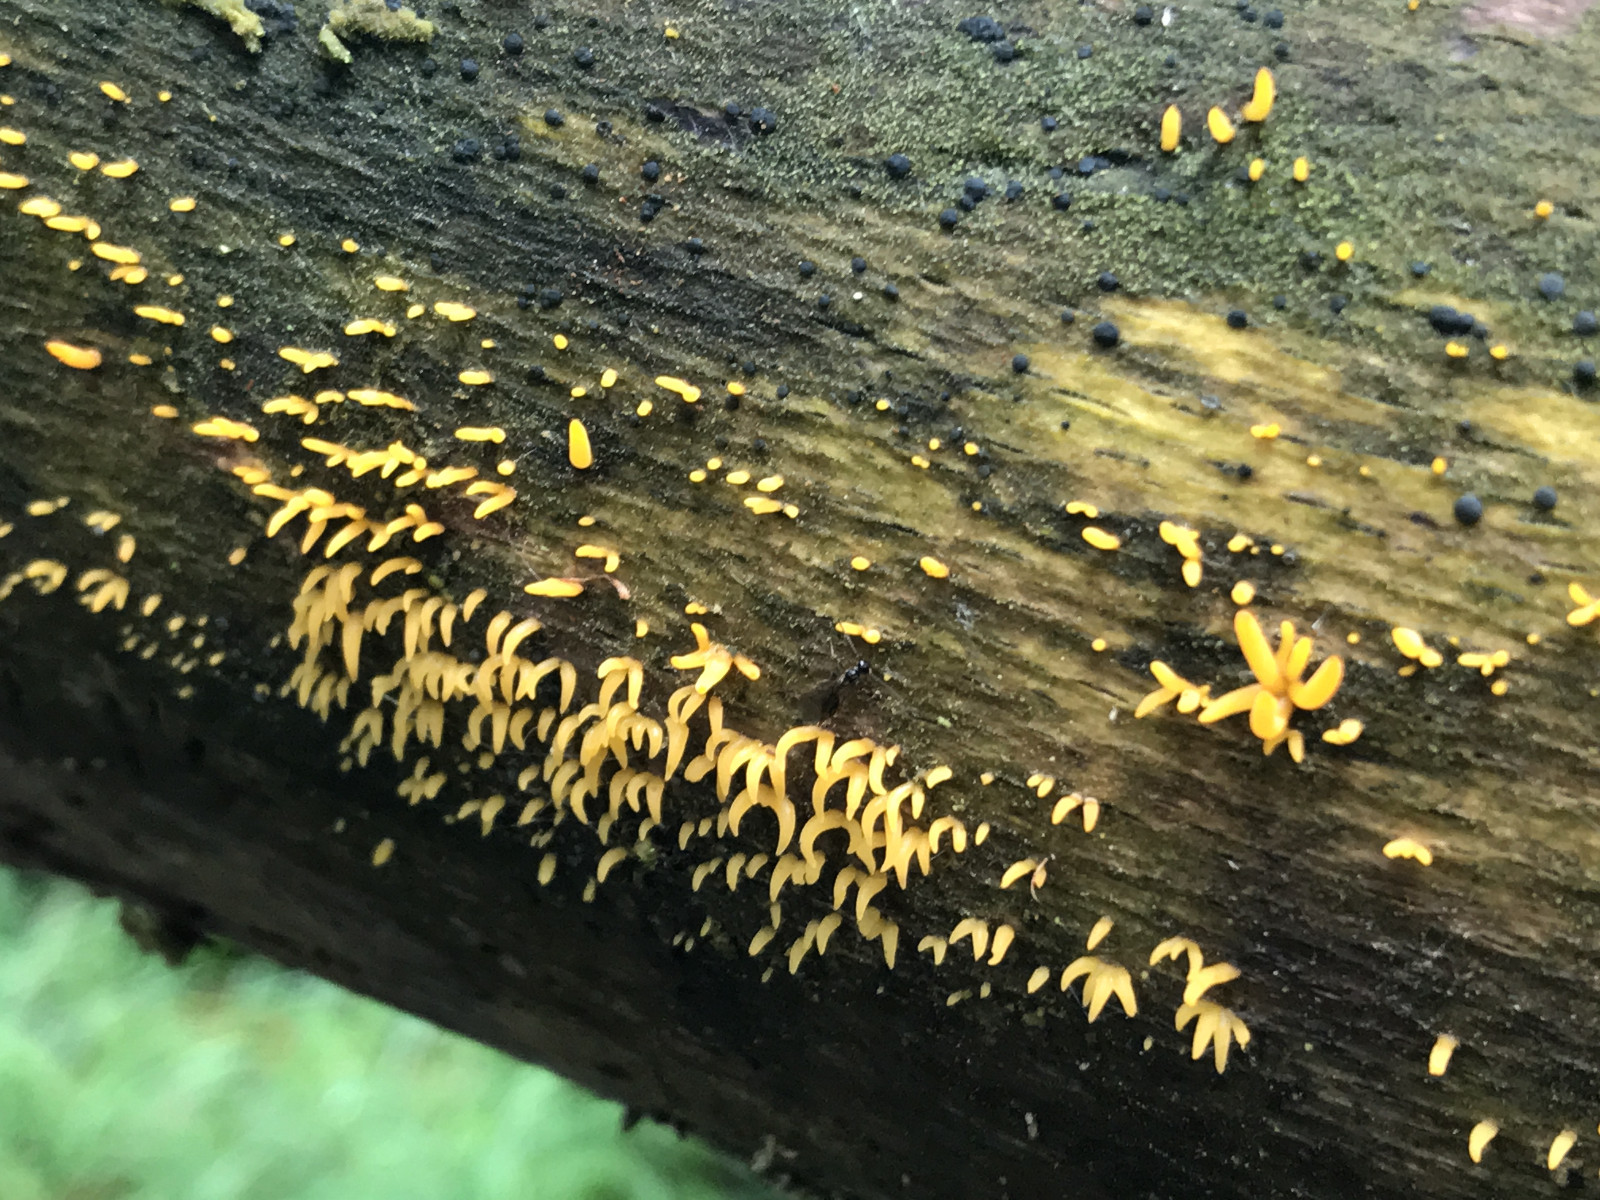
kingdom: Fungi
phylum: Basidiomycota
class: Dacrymycetes
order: Dacrymycetales
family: Dacrymycetaceae
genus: Calocera
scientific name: Calocera cornea
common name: liden guldgaffel
